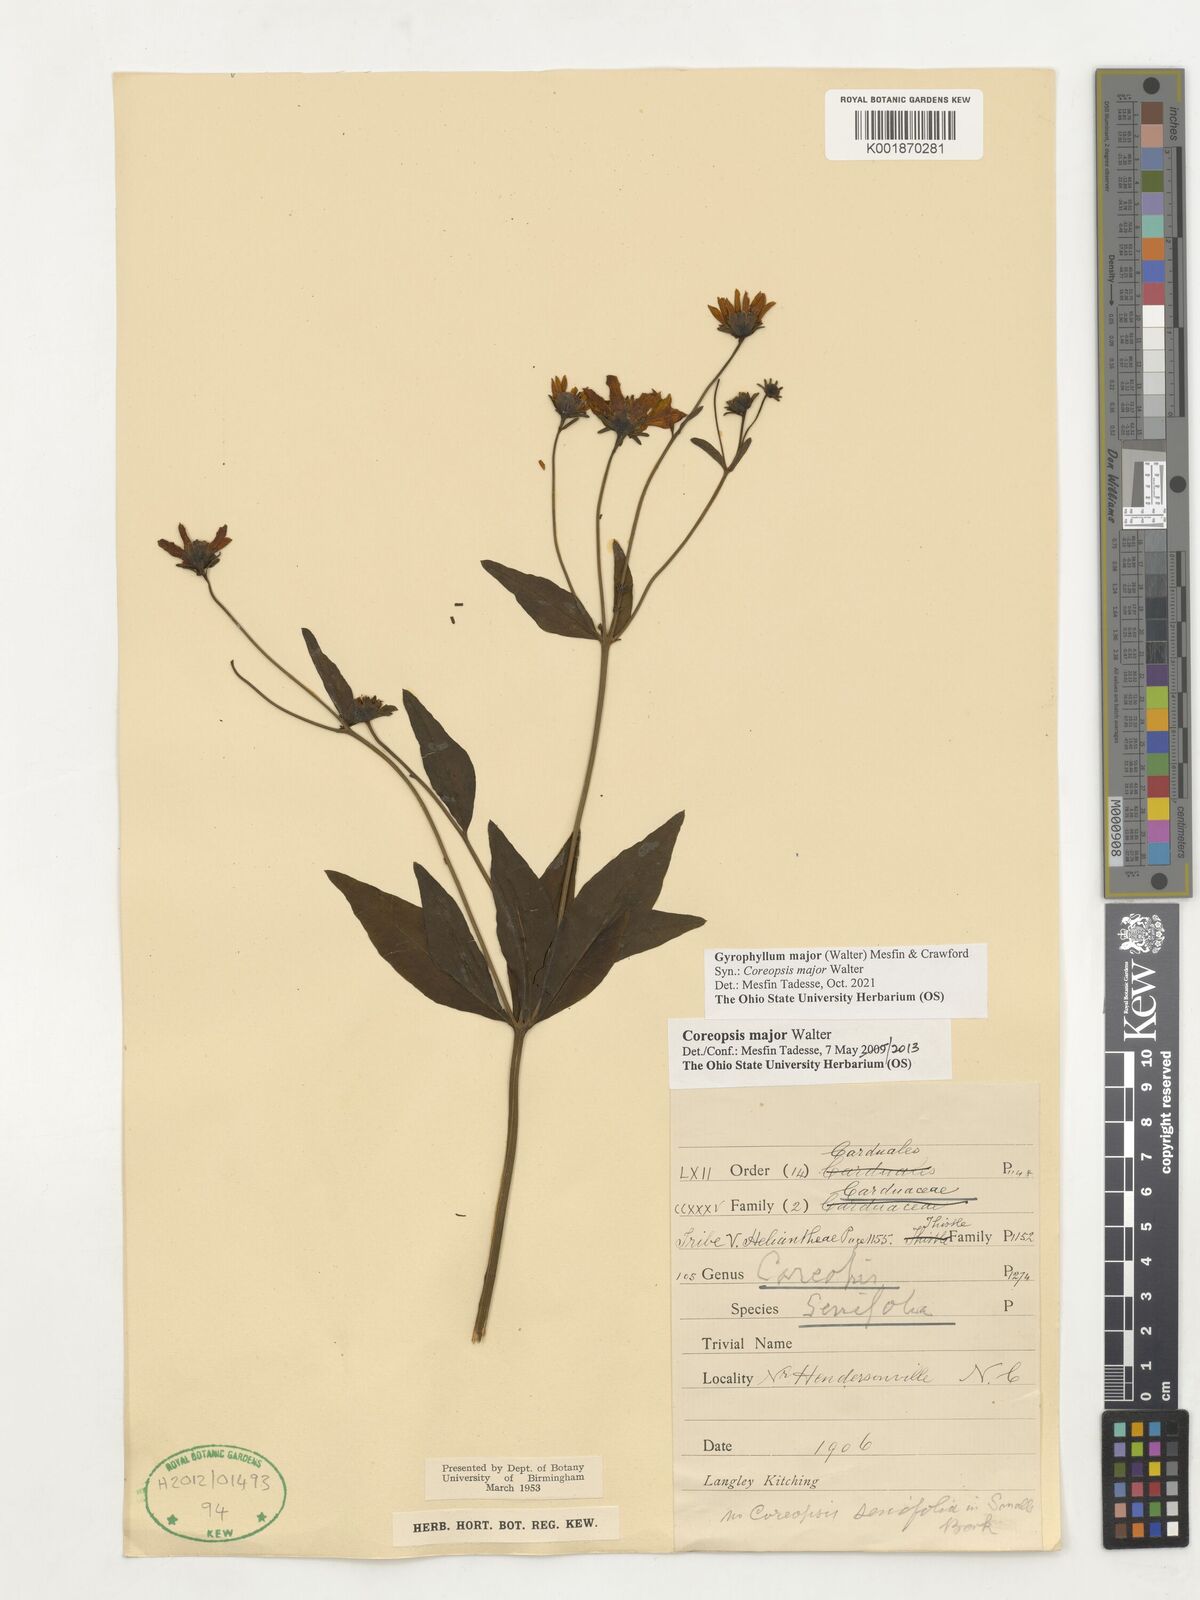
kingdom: Plantae
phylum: Tracheophyta
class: Magnoliopsida
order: Asterales
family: Asteraceae
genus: Coreopsis
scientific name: Coreopsis major
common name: Forest tickseed
